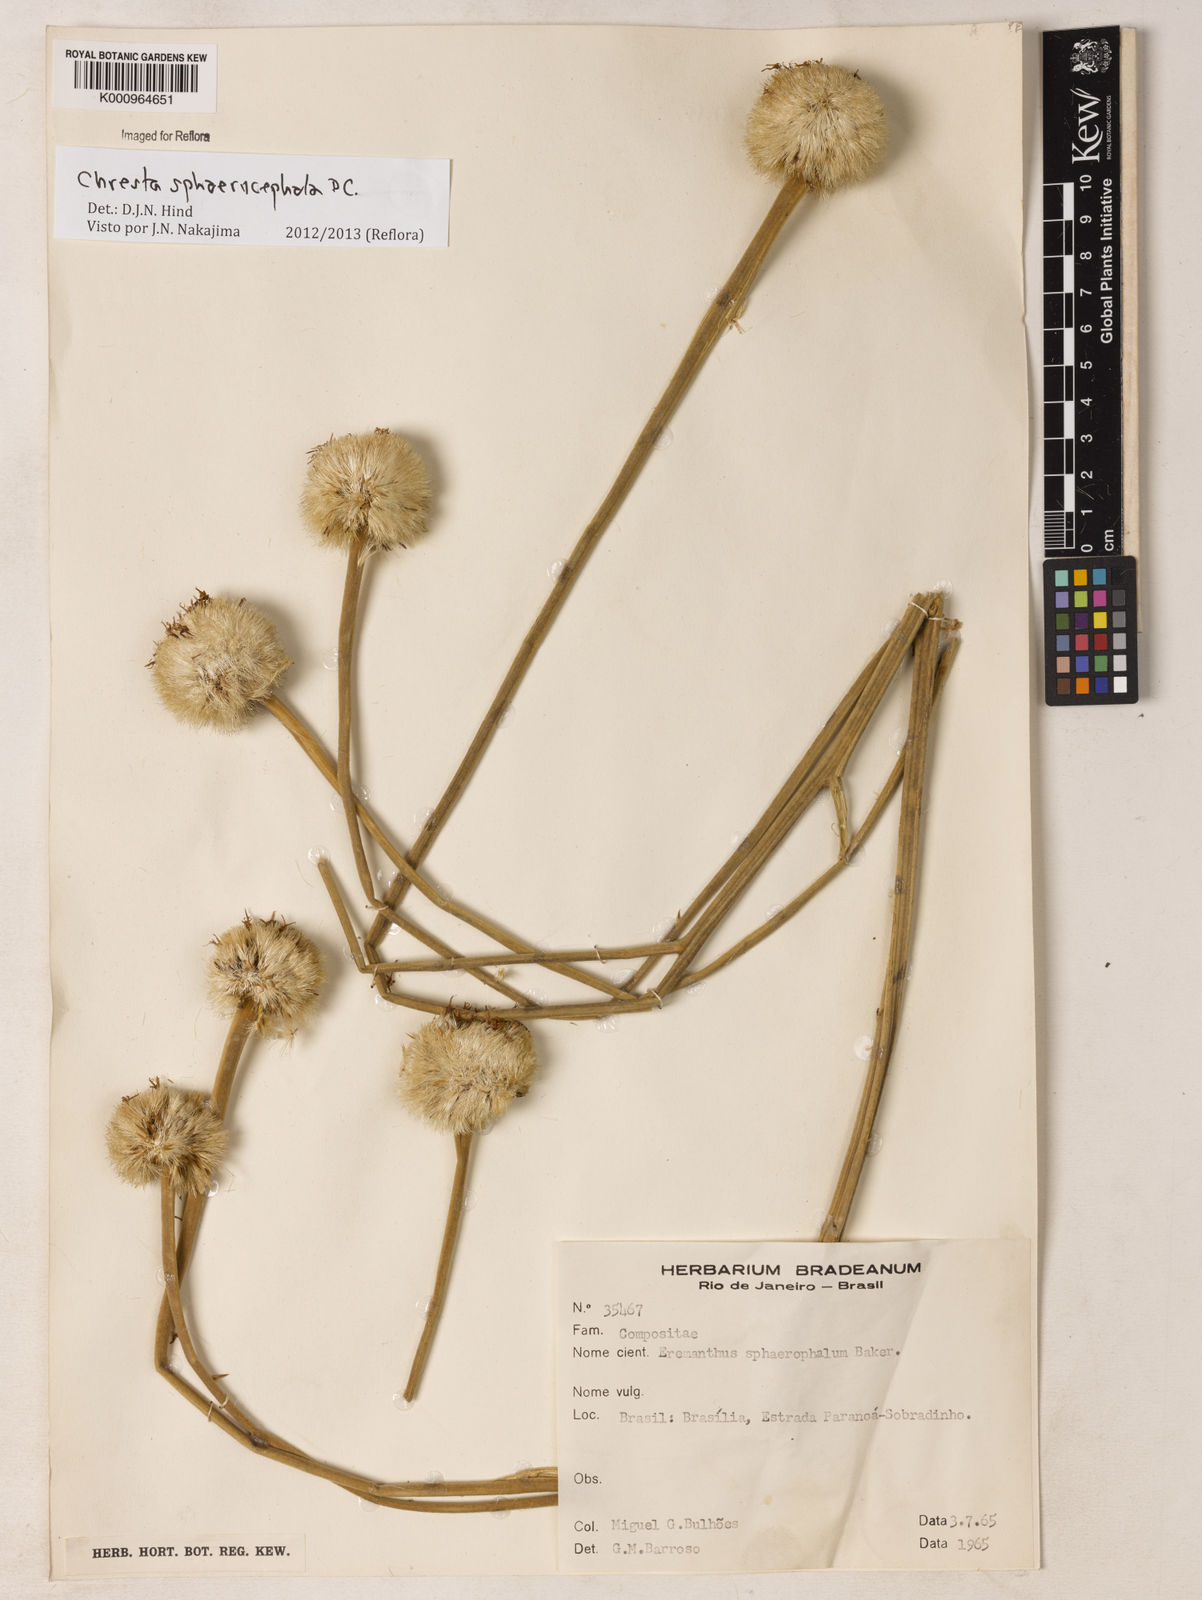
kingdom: Plantae
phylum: Tracheophyta
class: Magnoliopsida
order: Asterales
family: Asteraceae
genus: Chresta
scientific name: Chresta sphaerocephala
